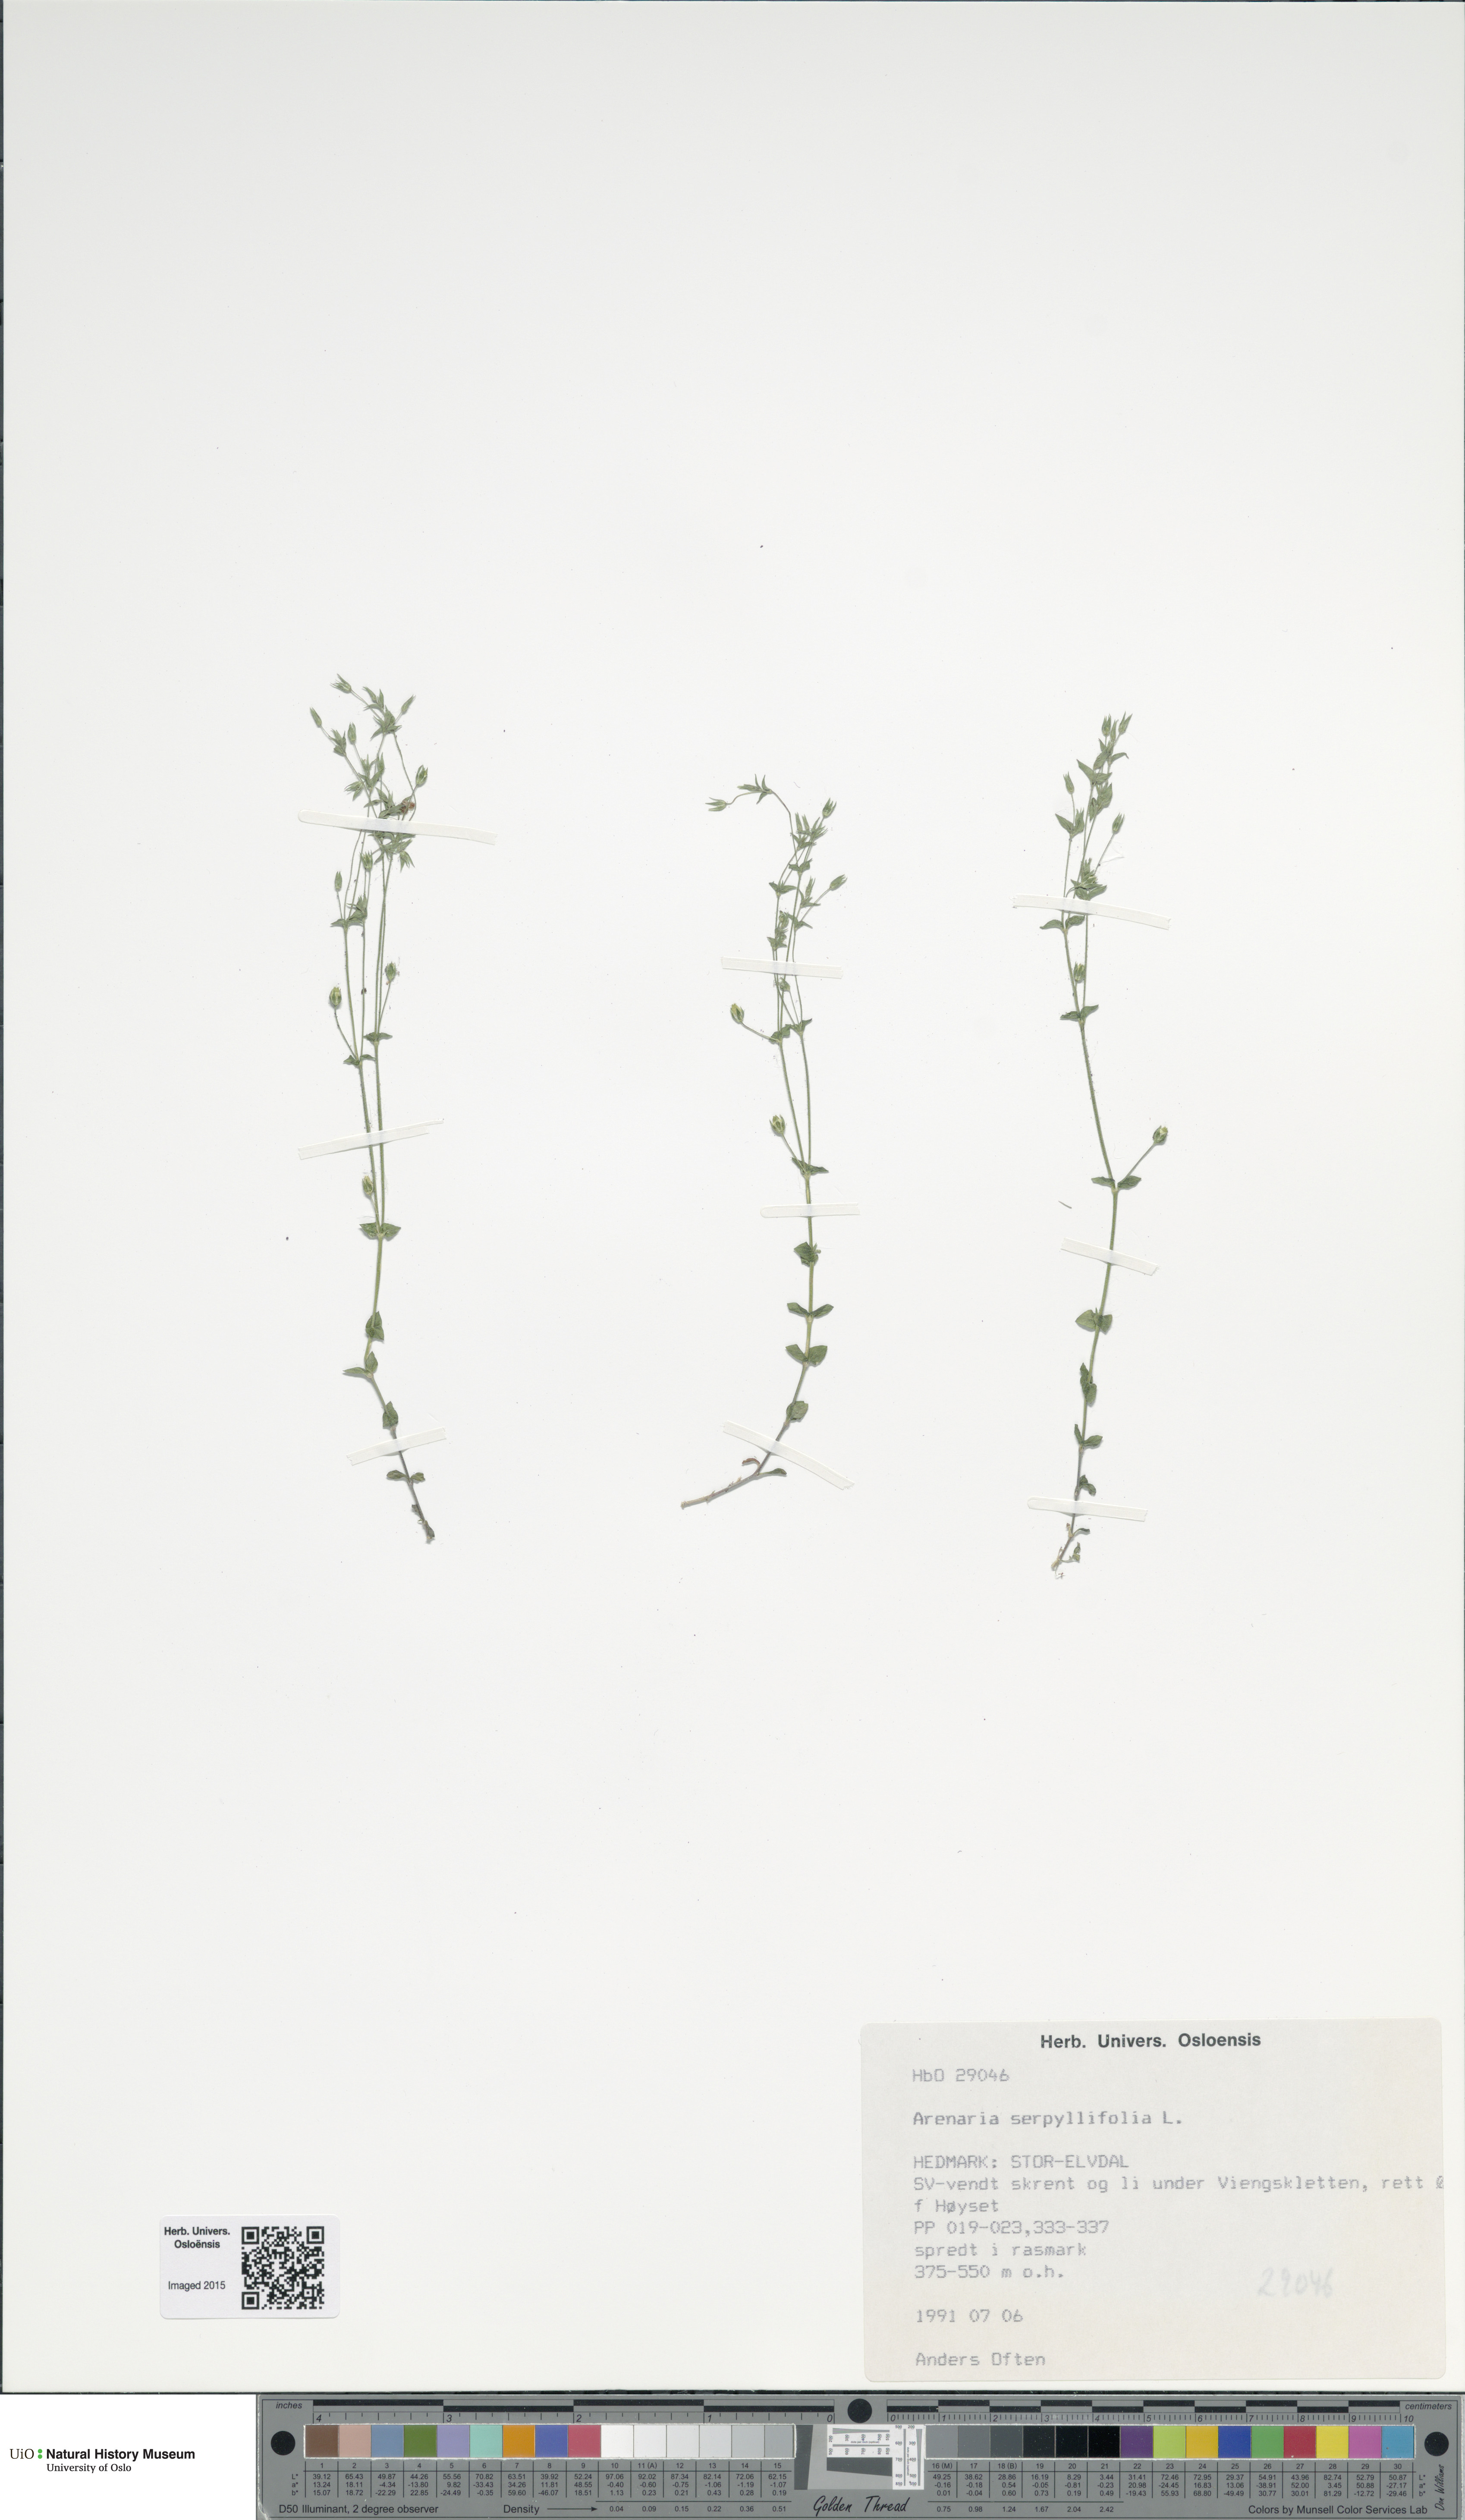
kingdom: Plantae
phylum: Tracheophyta
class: Magnoliopsida
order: Caryophyllales
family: Caryophyllaceae
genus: Arenaria
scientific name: Arenaria serpyllifolia
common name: Thyme-leaved sandwort
